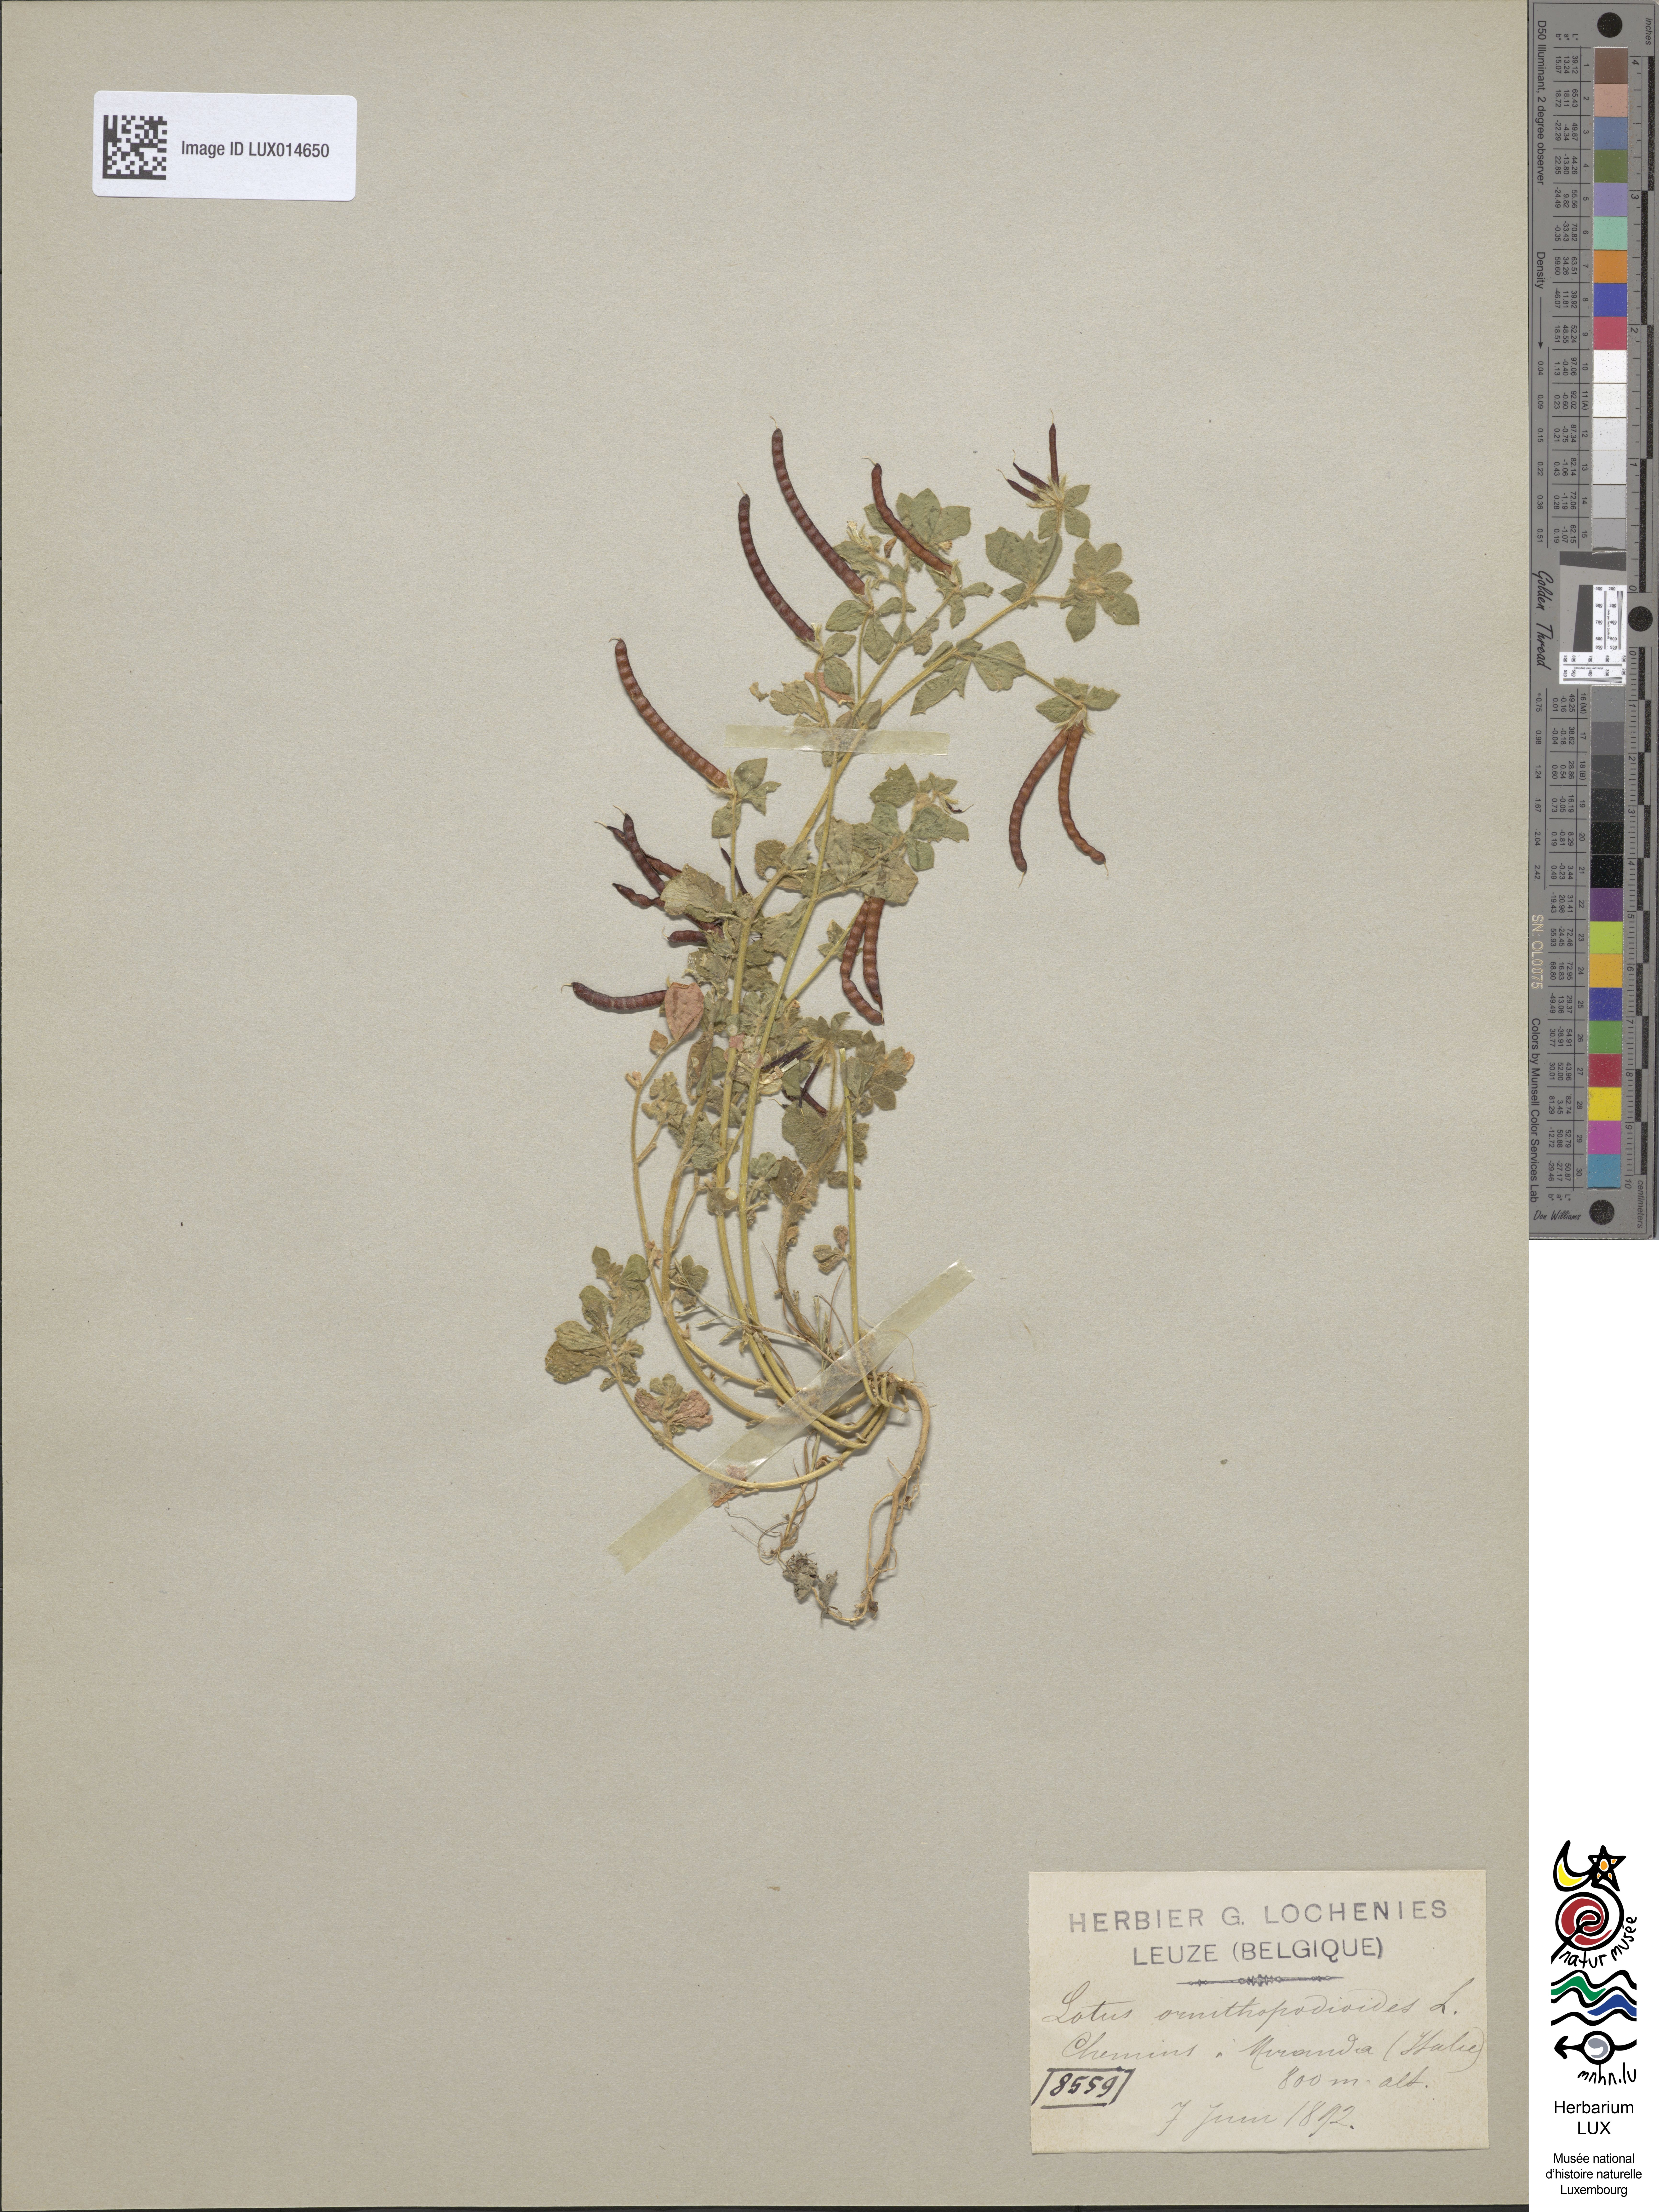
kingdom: Plantae
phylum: Tracheophyta
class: Magnoliopsida
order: Fabales
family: Fabaceae
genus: Lotus
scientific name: Lotus ornithopodioides
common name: Southern bird's-foot trefoil
